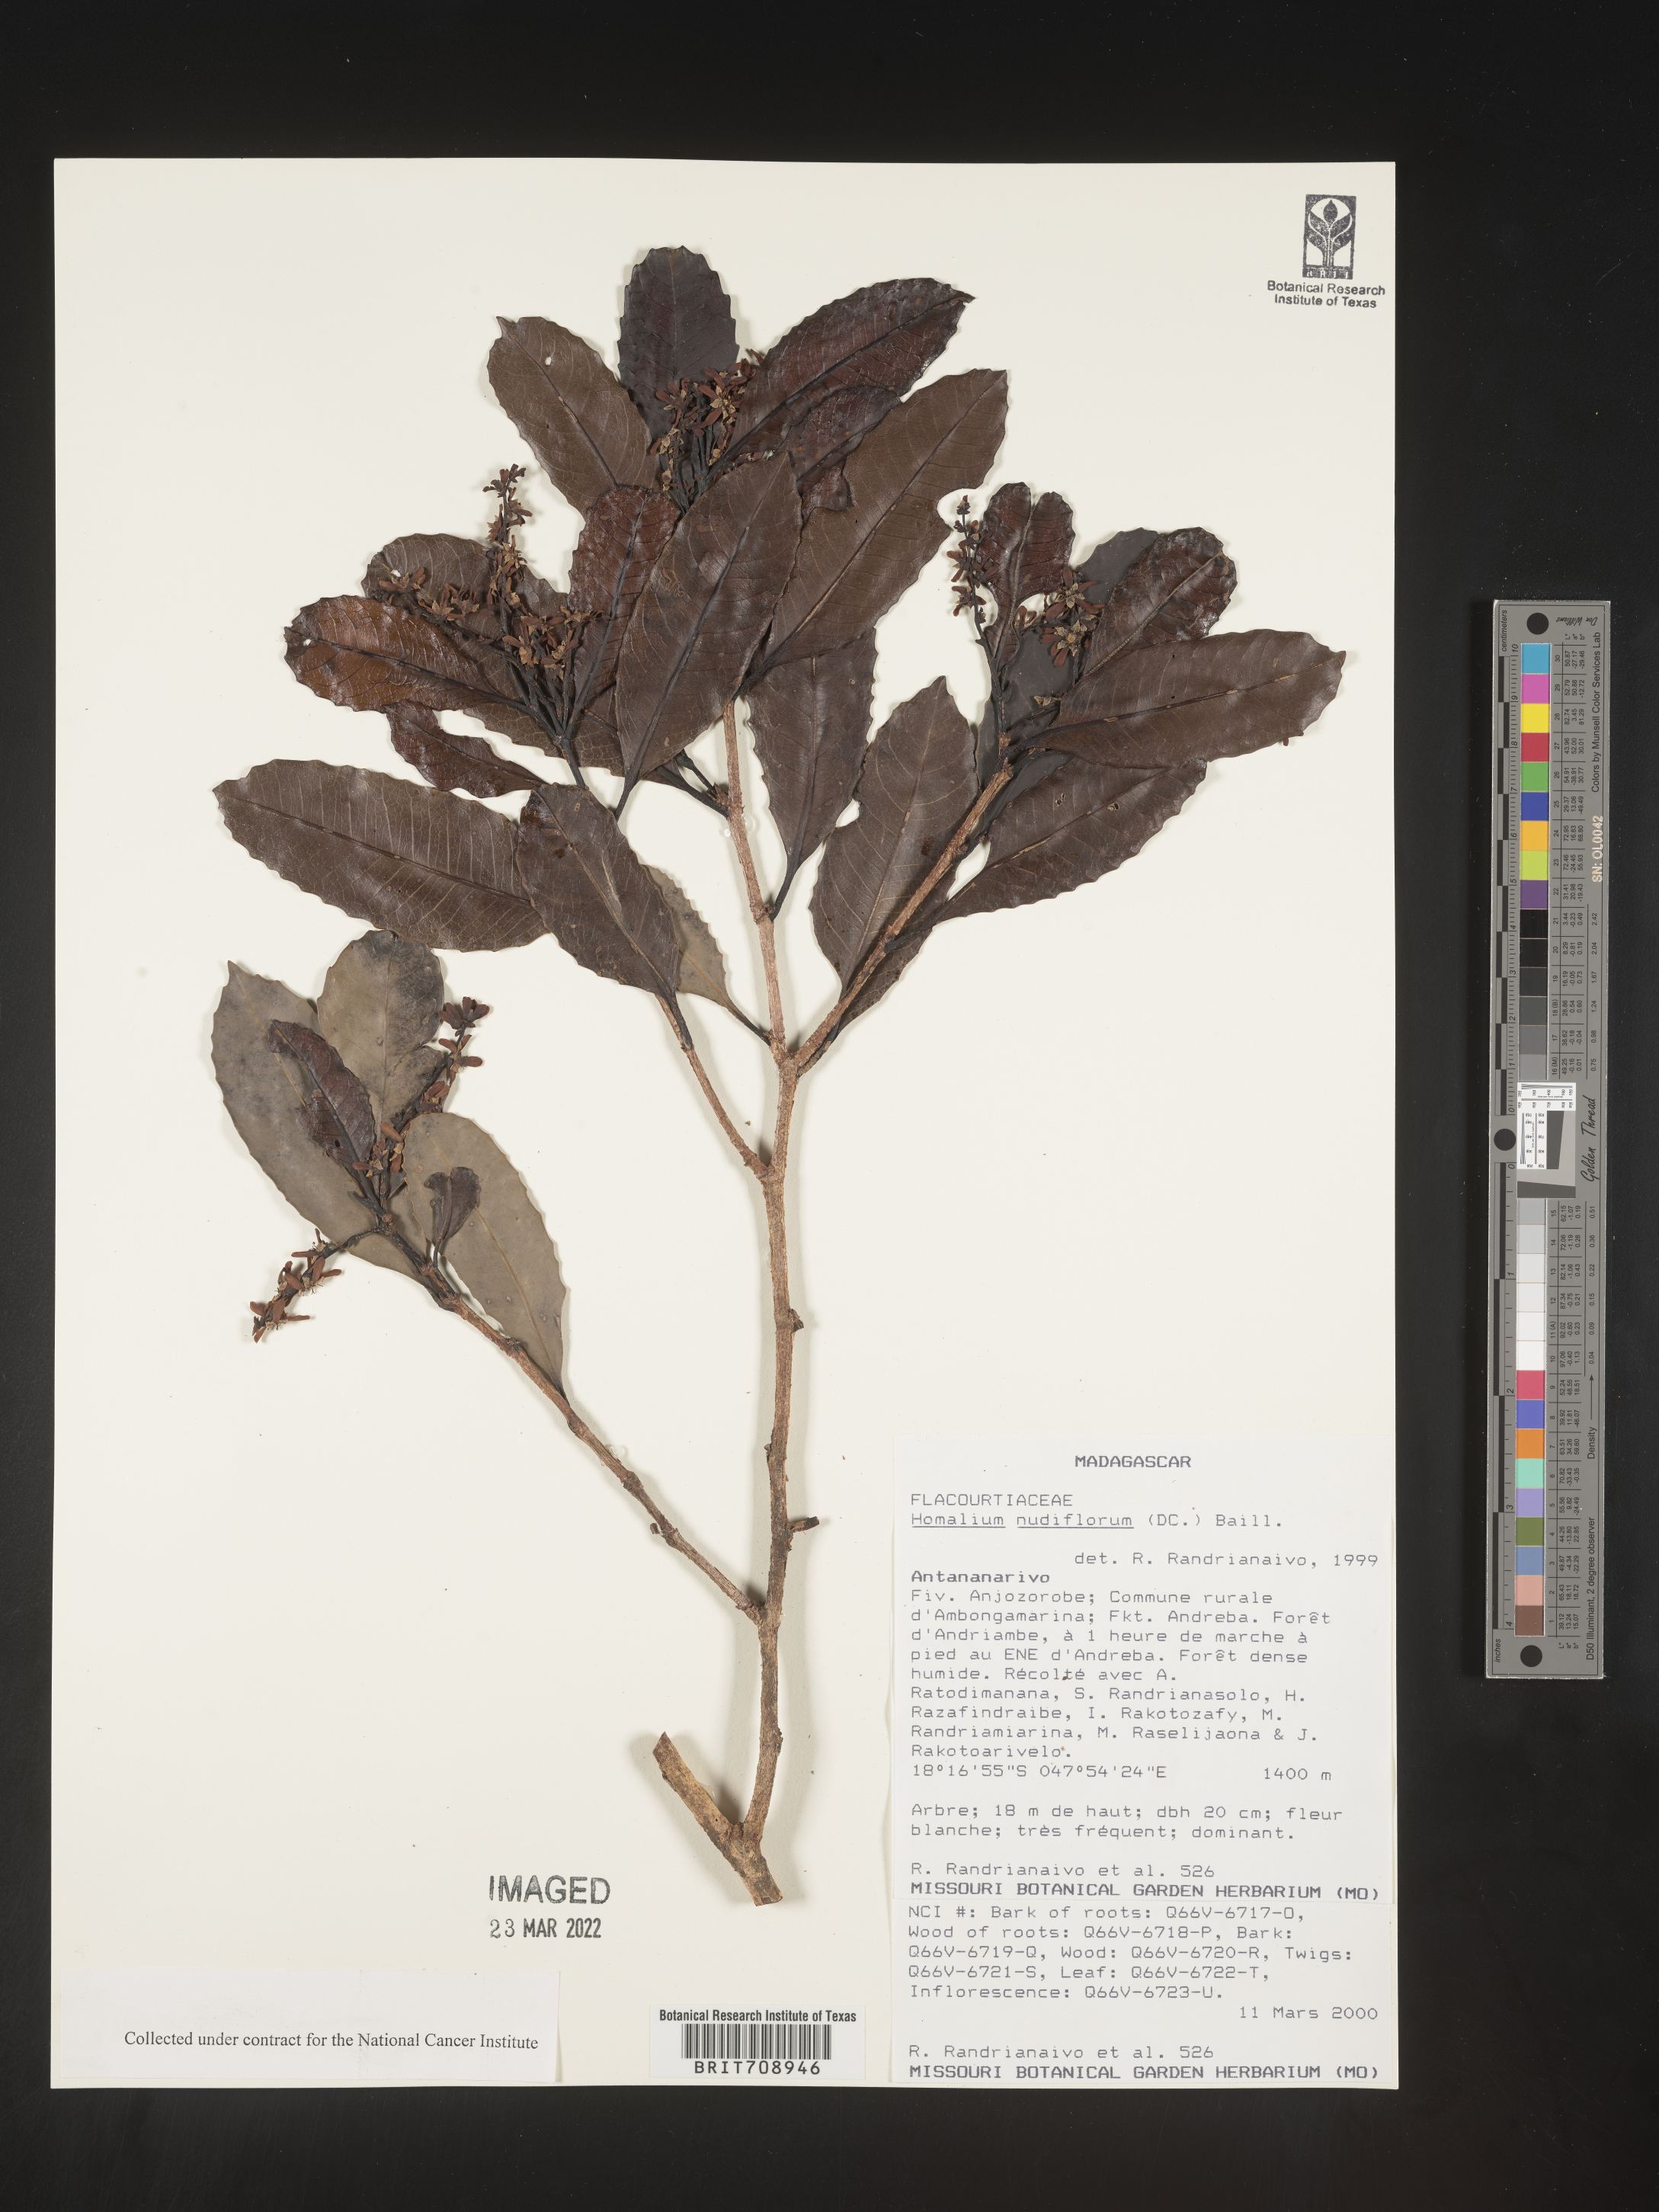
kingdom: Plantae
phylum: Tracheophyta
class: Magnoliopsida
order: Malpighiales
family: Salicaceae
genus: Homalium
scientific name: Homalium
